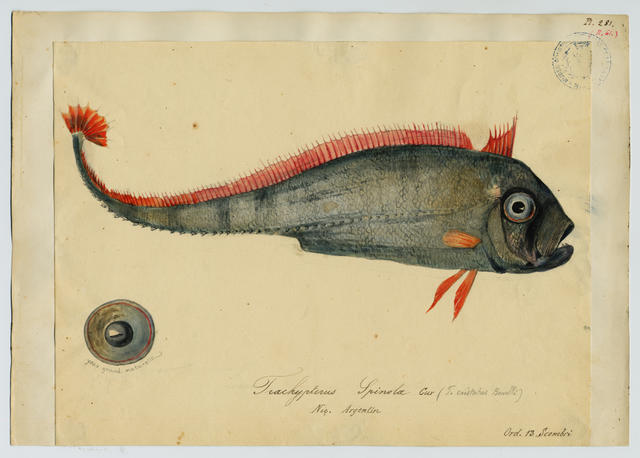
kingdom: Animalia
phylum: Chordata
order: Lampriformes
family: Trachipteridae
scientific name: Trachipteridae
